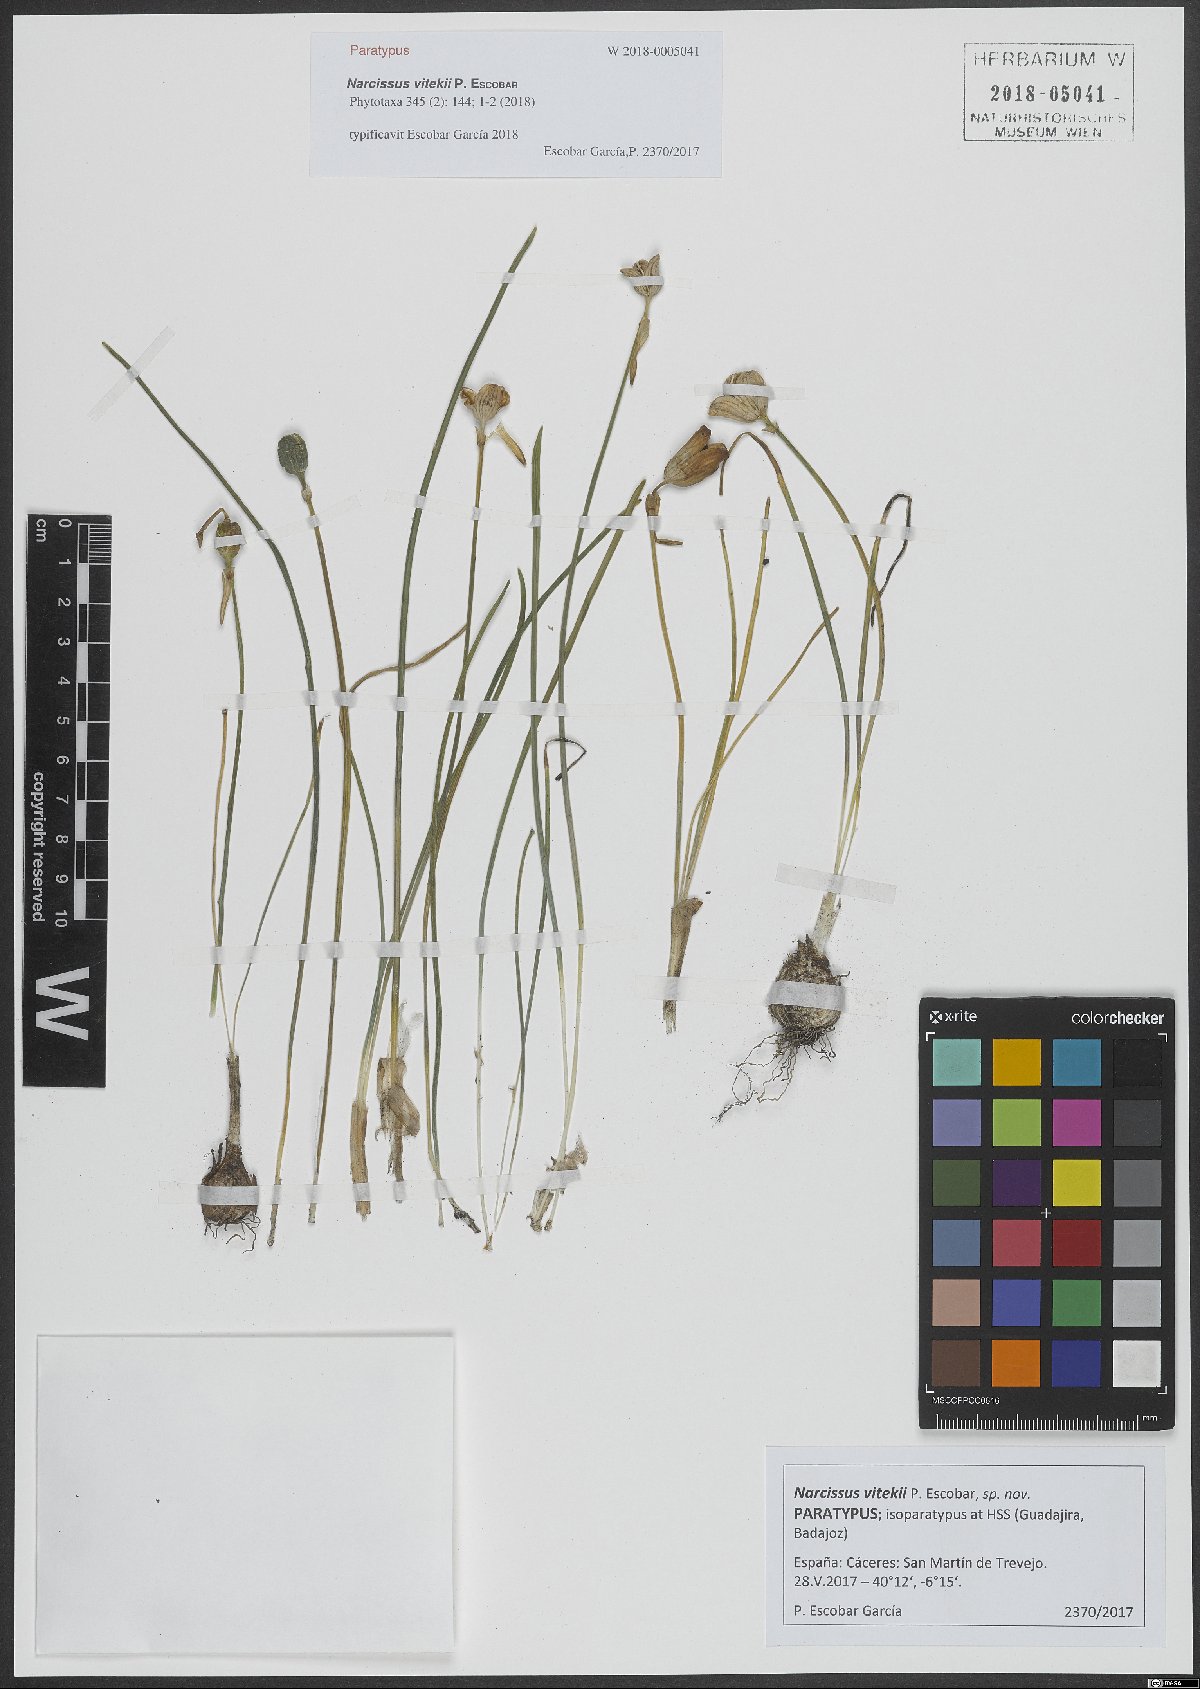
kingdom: Plantae
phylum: Tracheophyta
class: Liliopsida
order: Asparagales
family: Amaryllidaceae
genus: Narcissus
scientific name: Narcissus vitekii
